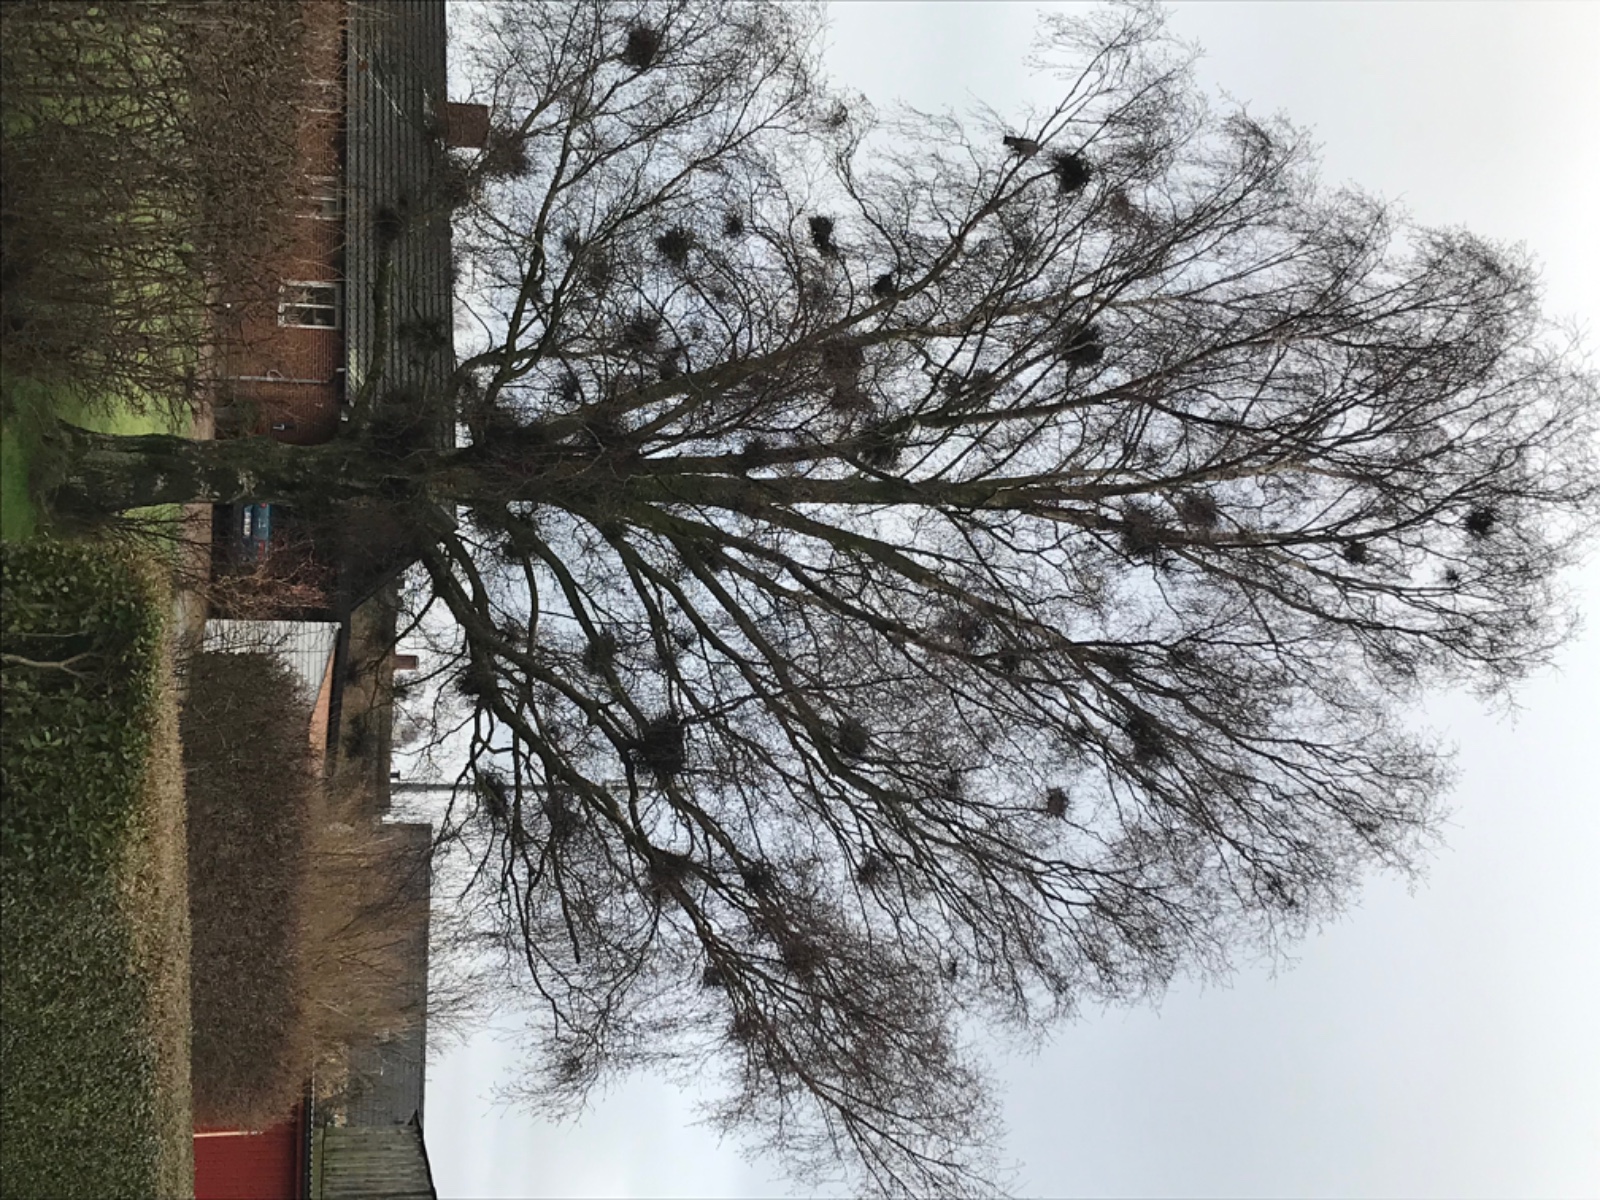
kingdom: Fungi
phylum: Ascomycota
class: Taphrinomycetes
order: Taphrinales
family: Taphrinaceae
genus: Taphrina
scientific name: Taphrina betulina
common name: hekse-sækdug
